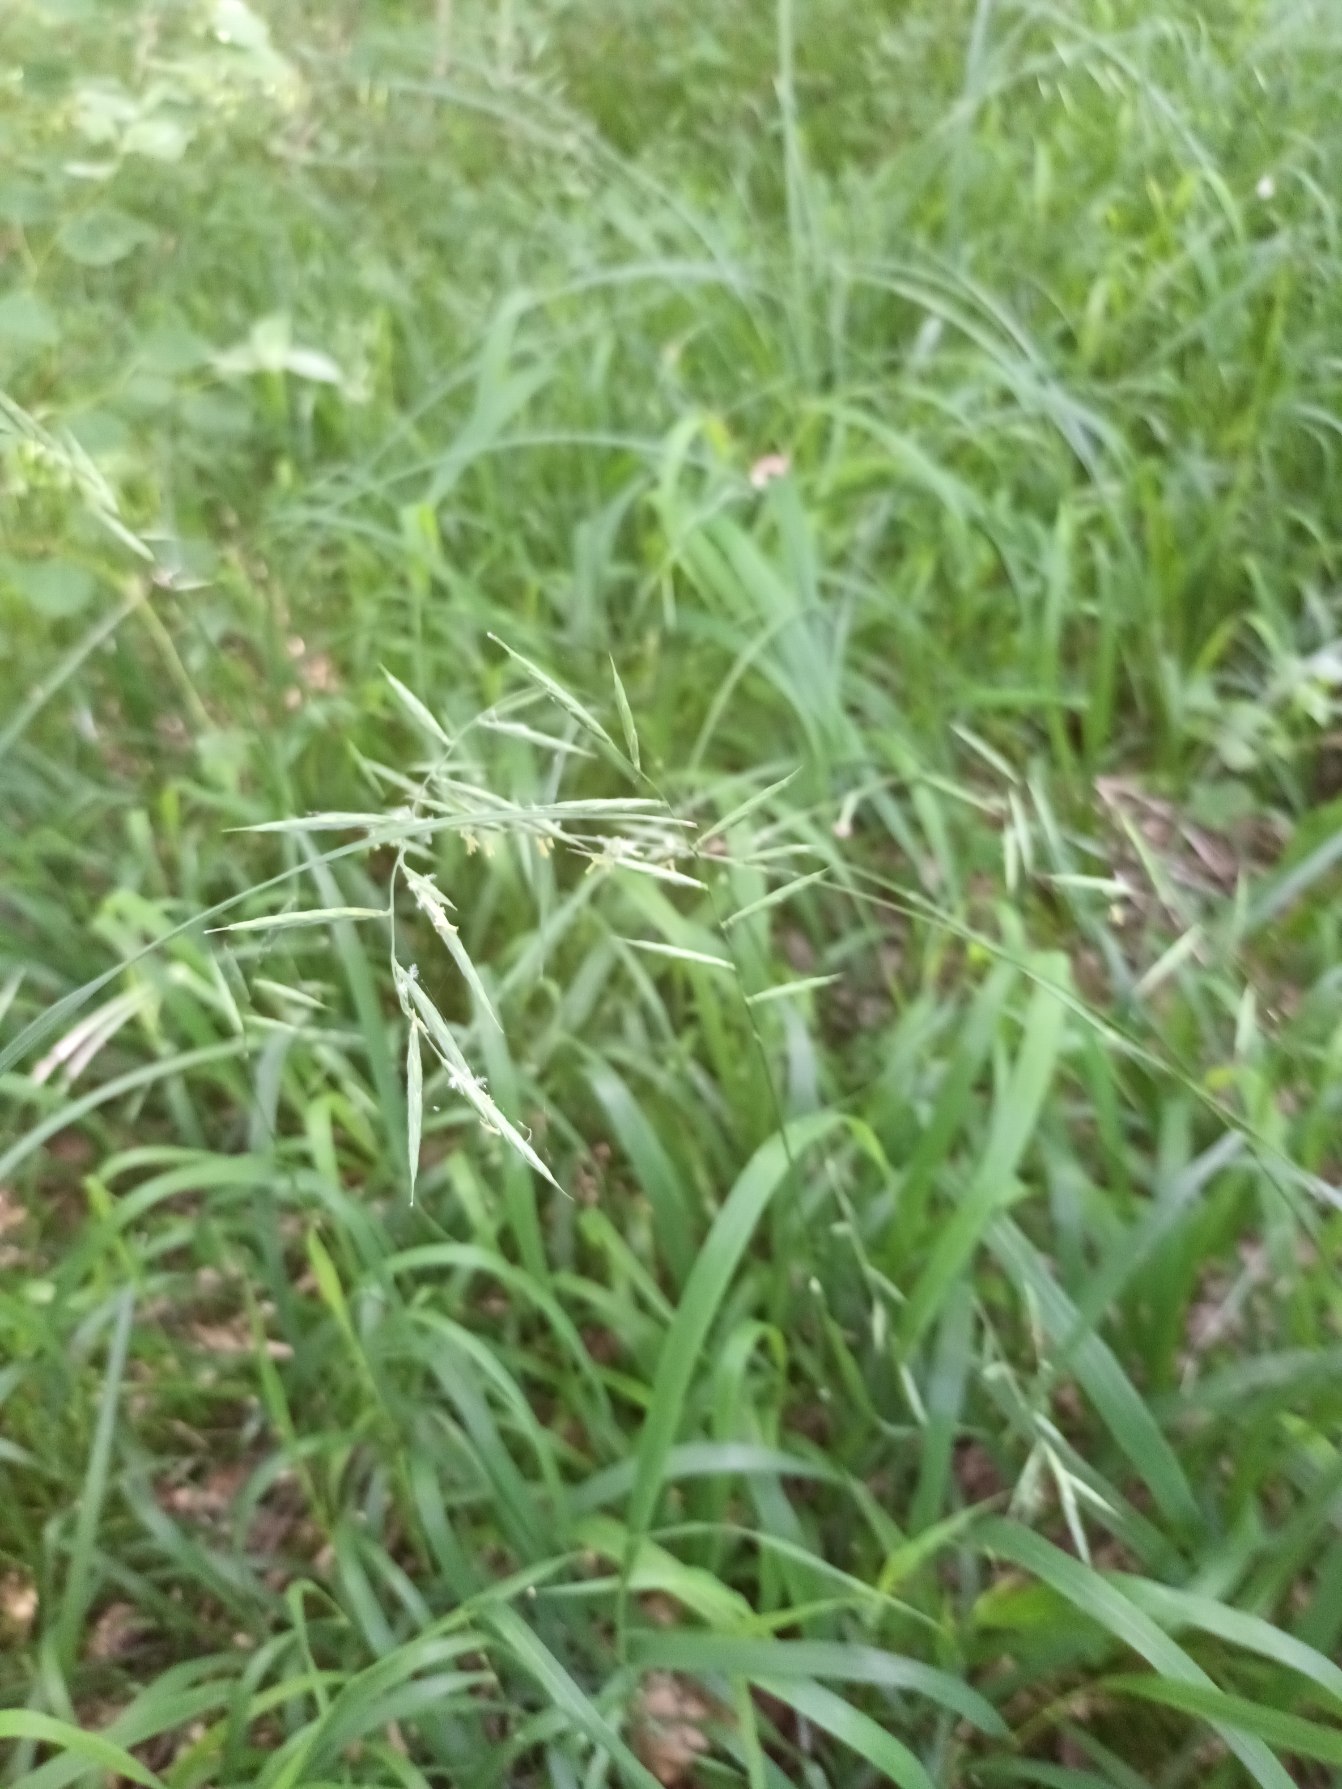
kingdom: Plantae
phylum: Tracheophyta
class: Liliopsida
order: Poales
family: Poaceae
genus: Brachypodium
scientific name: Brachypodium pinnatum
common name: Bakke-stilkaks
